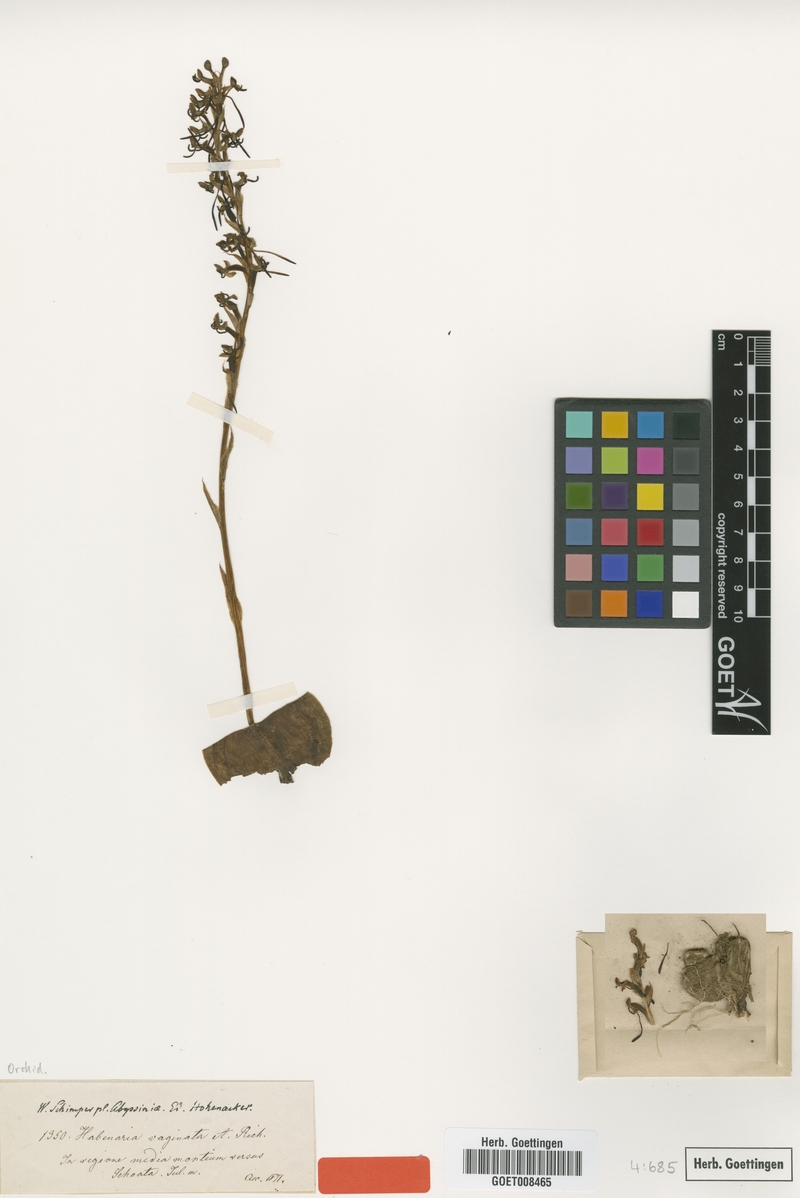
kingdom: Plantae
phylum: Tracheophyta
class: Liliopsida
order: Asparagales
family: Orchidaceae
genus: Habenaria
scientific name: Habenaria vaginata
